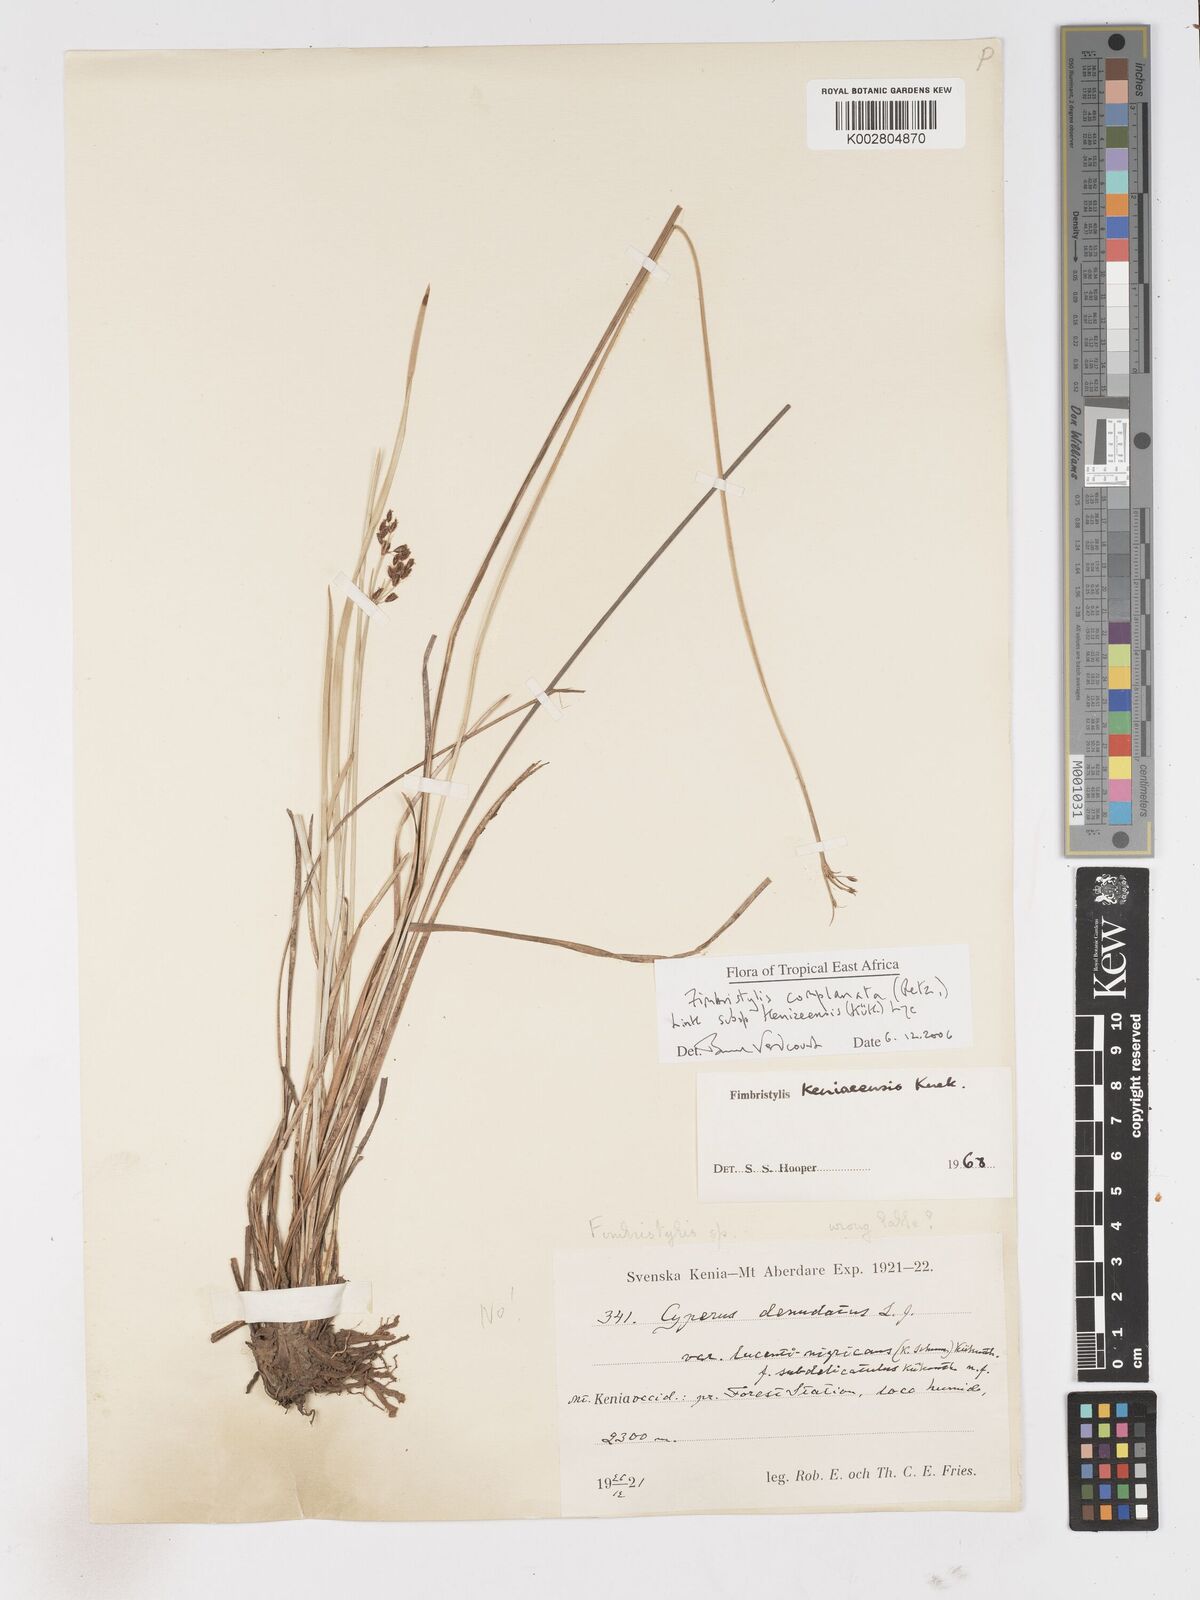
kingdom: Plantae
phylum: Tracheophyta
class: Liliopsida
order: Poales
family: Cyperaceae
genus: Fimbristylis
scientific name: Fimbristylis complanata
